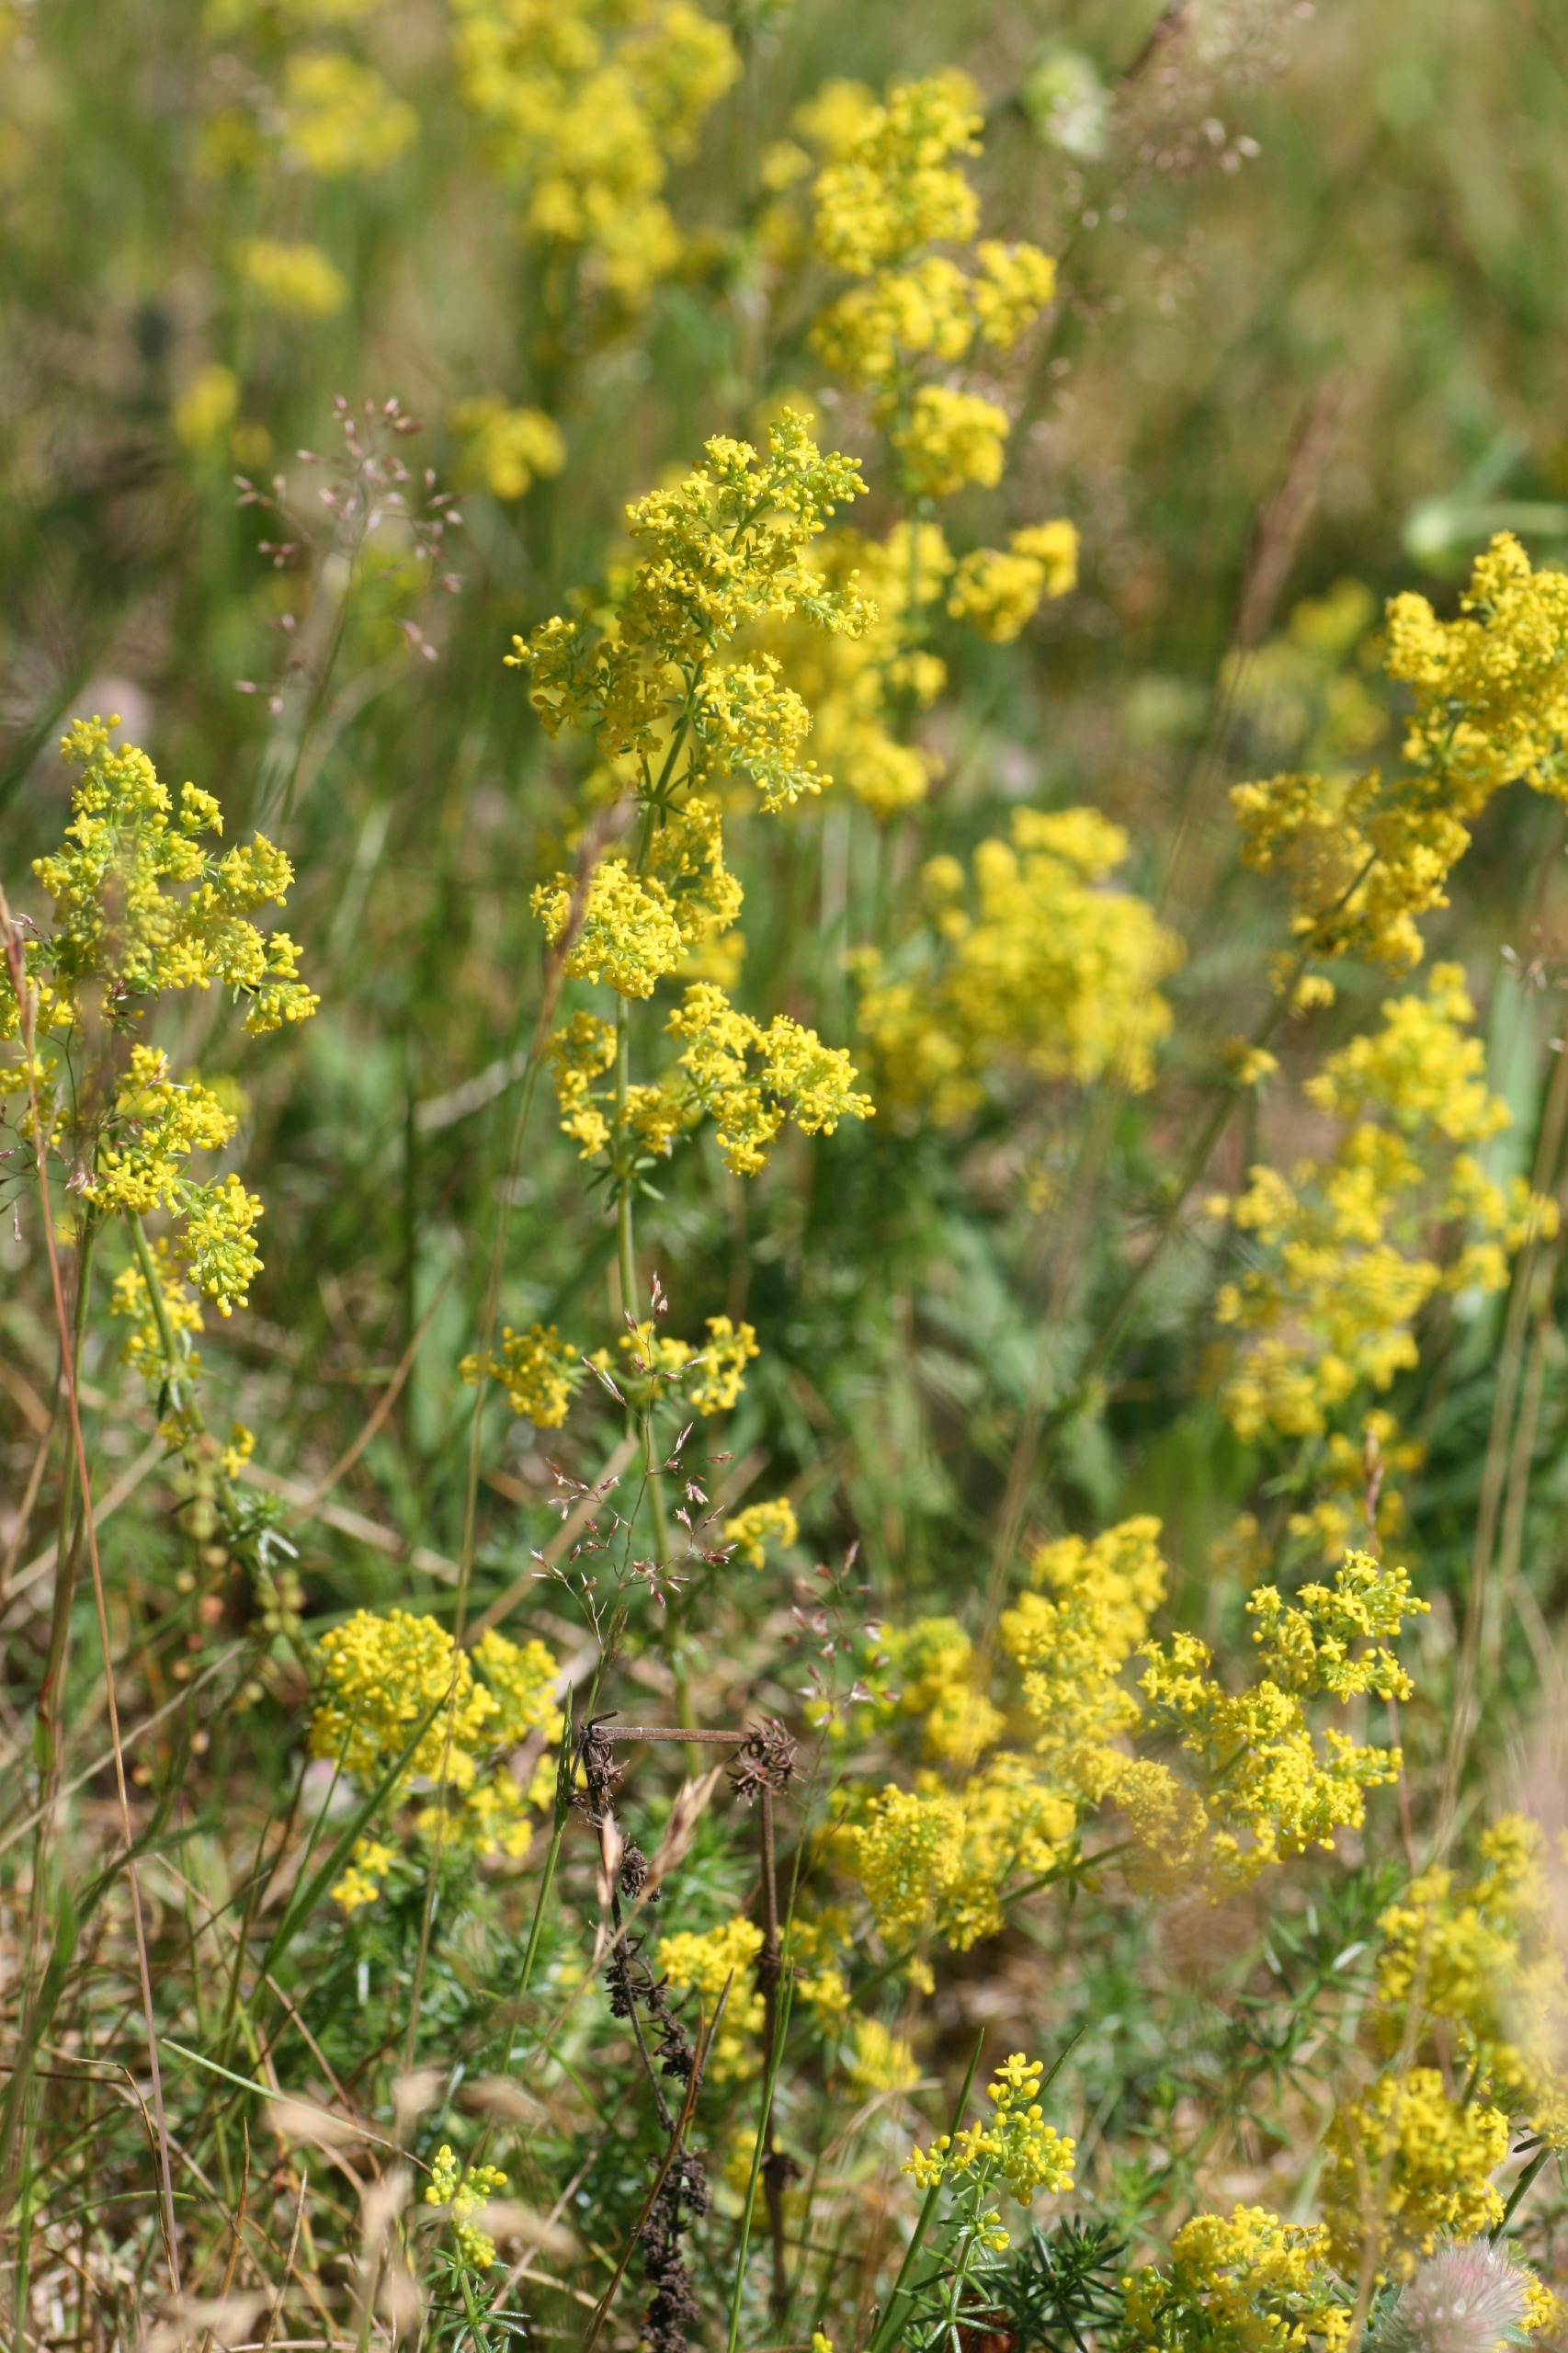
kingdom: Plantae
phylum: Tracheophyta
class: Magnoliopsida
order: Gentianales
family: Rubiaceae
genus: Galium
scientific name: Galium verum
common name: Gul snerre
